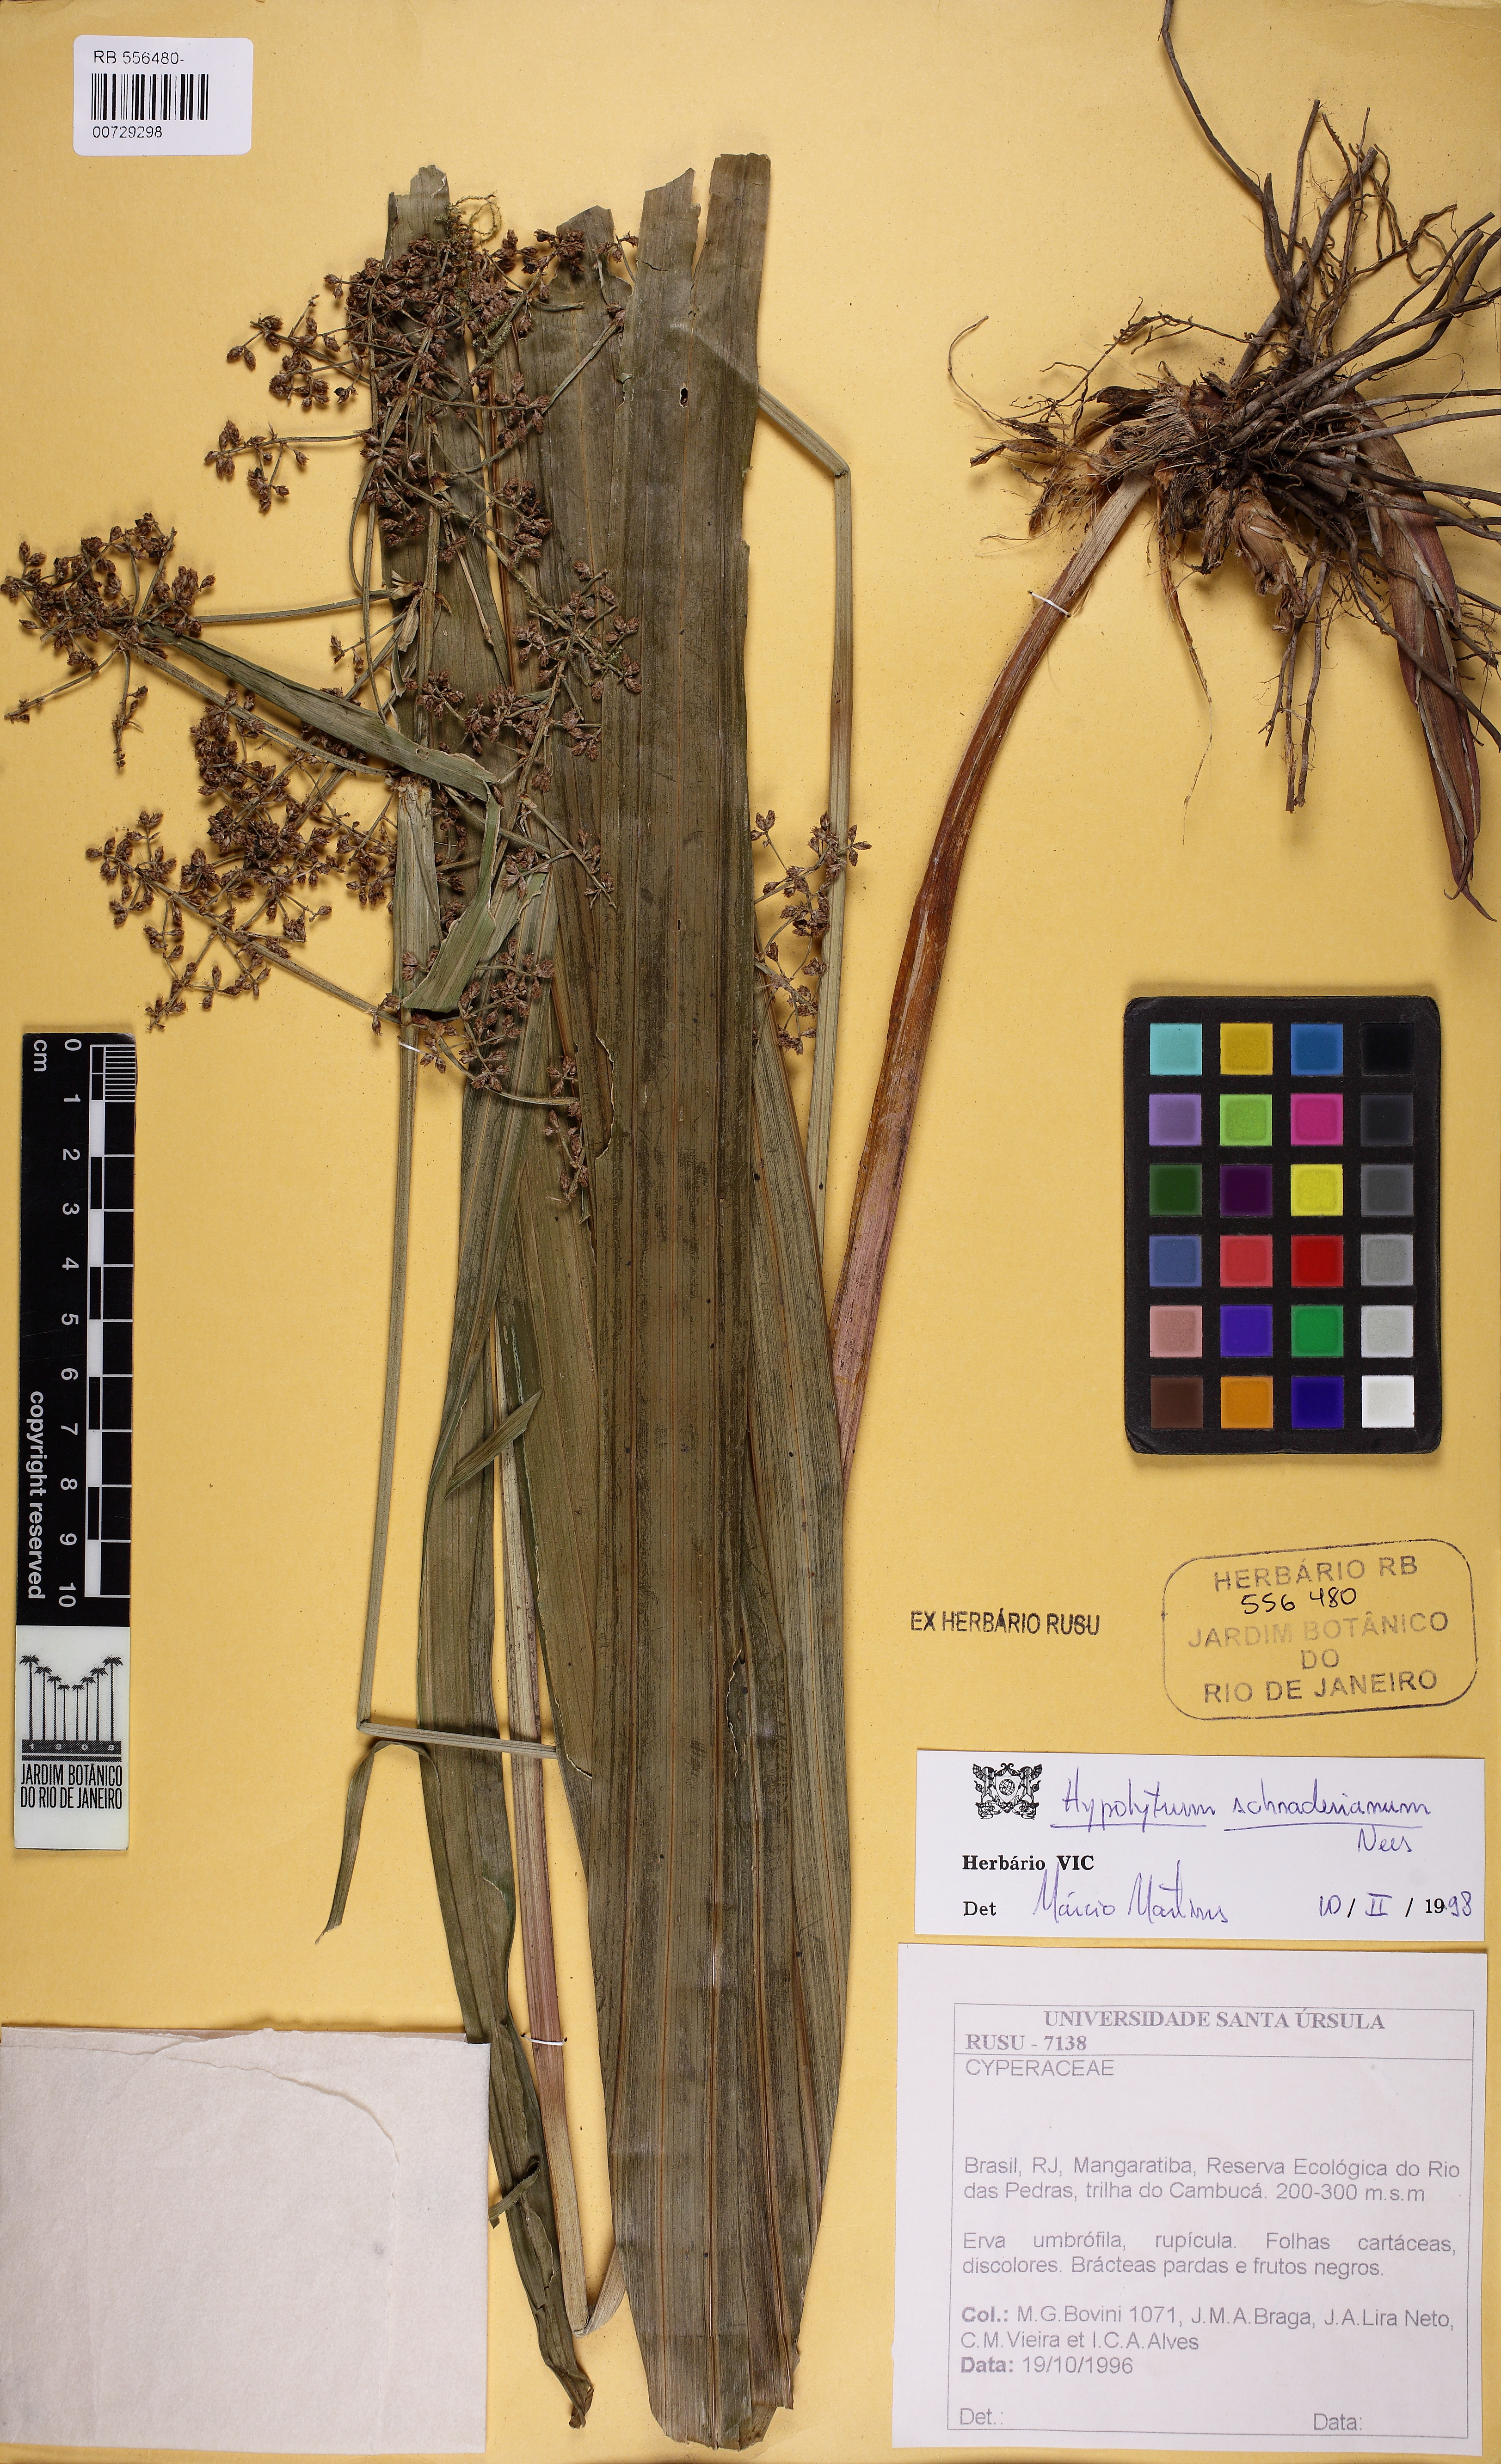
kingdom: Plantae
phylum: Tracheophyta
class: Liliopsida
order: Poales
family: Cyperaceae
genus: Hypolytrum
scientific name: Hypolytrum schraderianum
